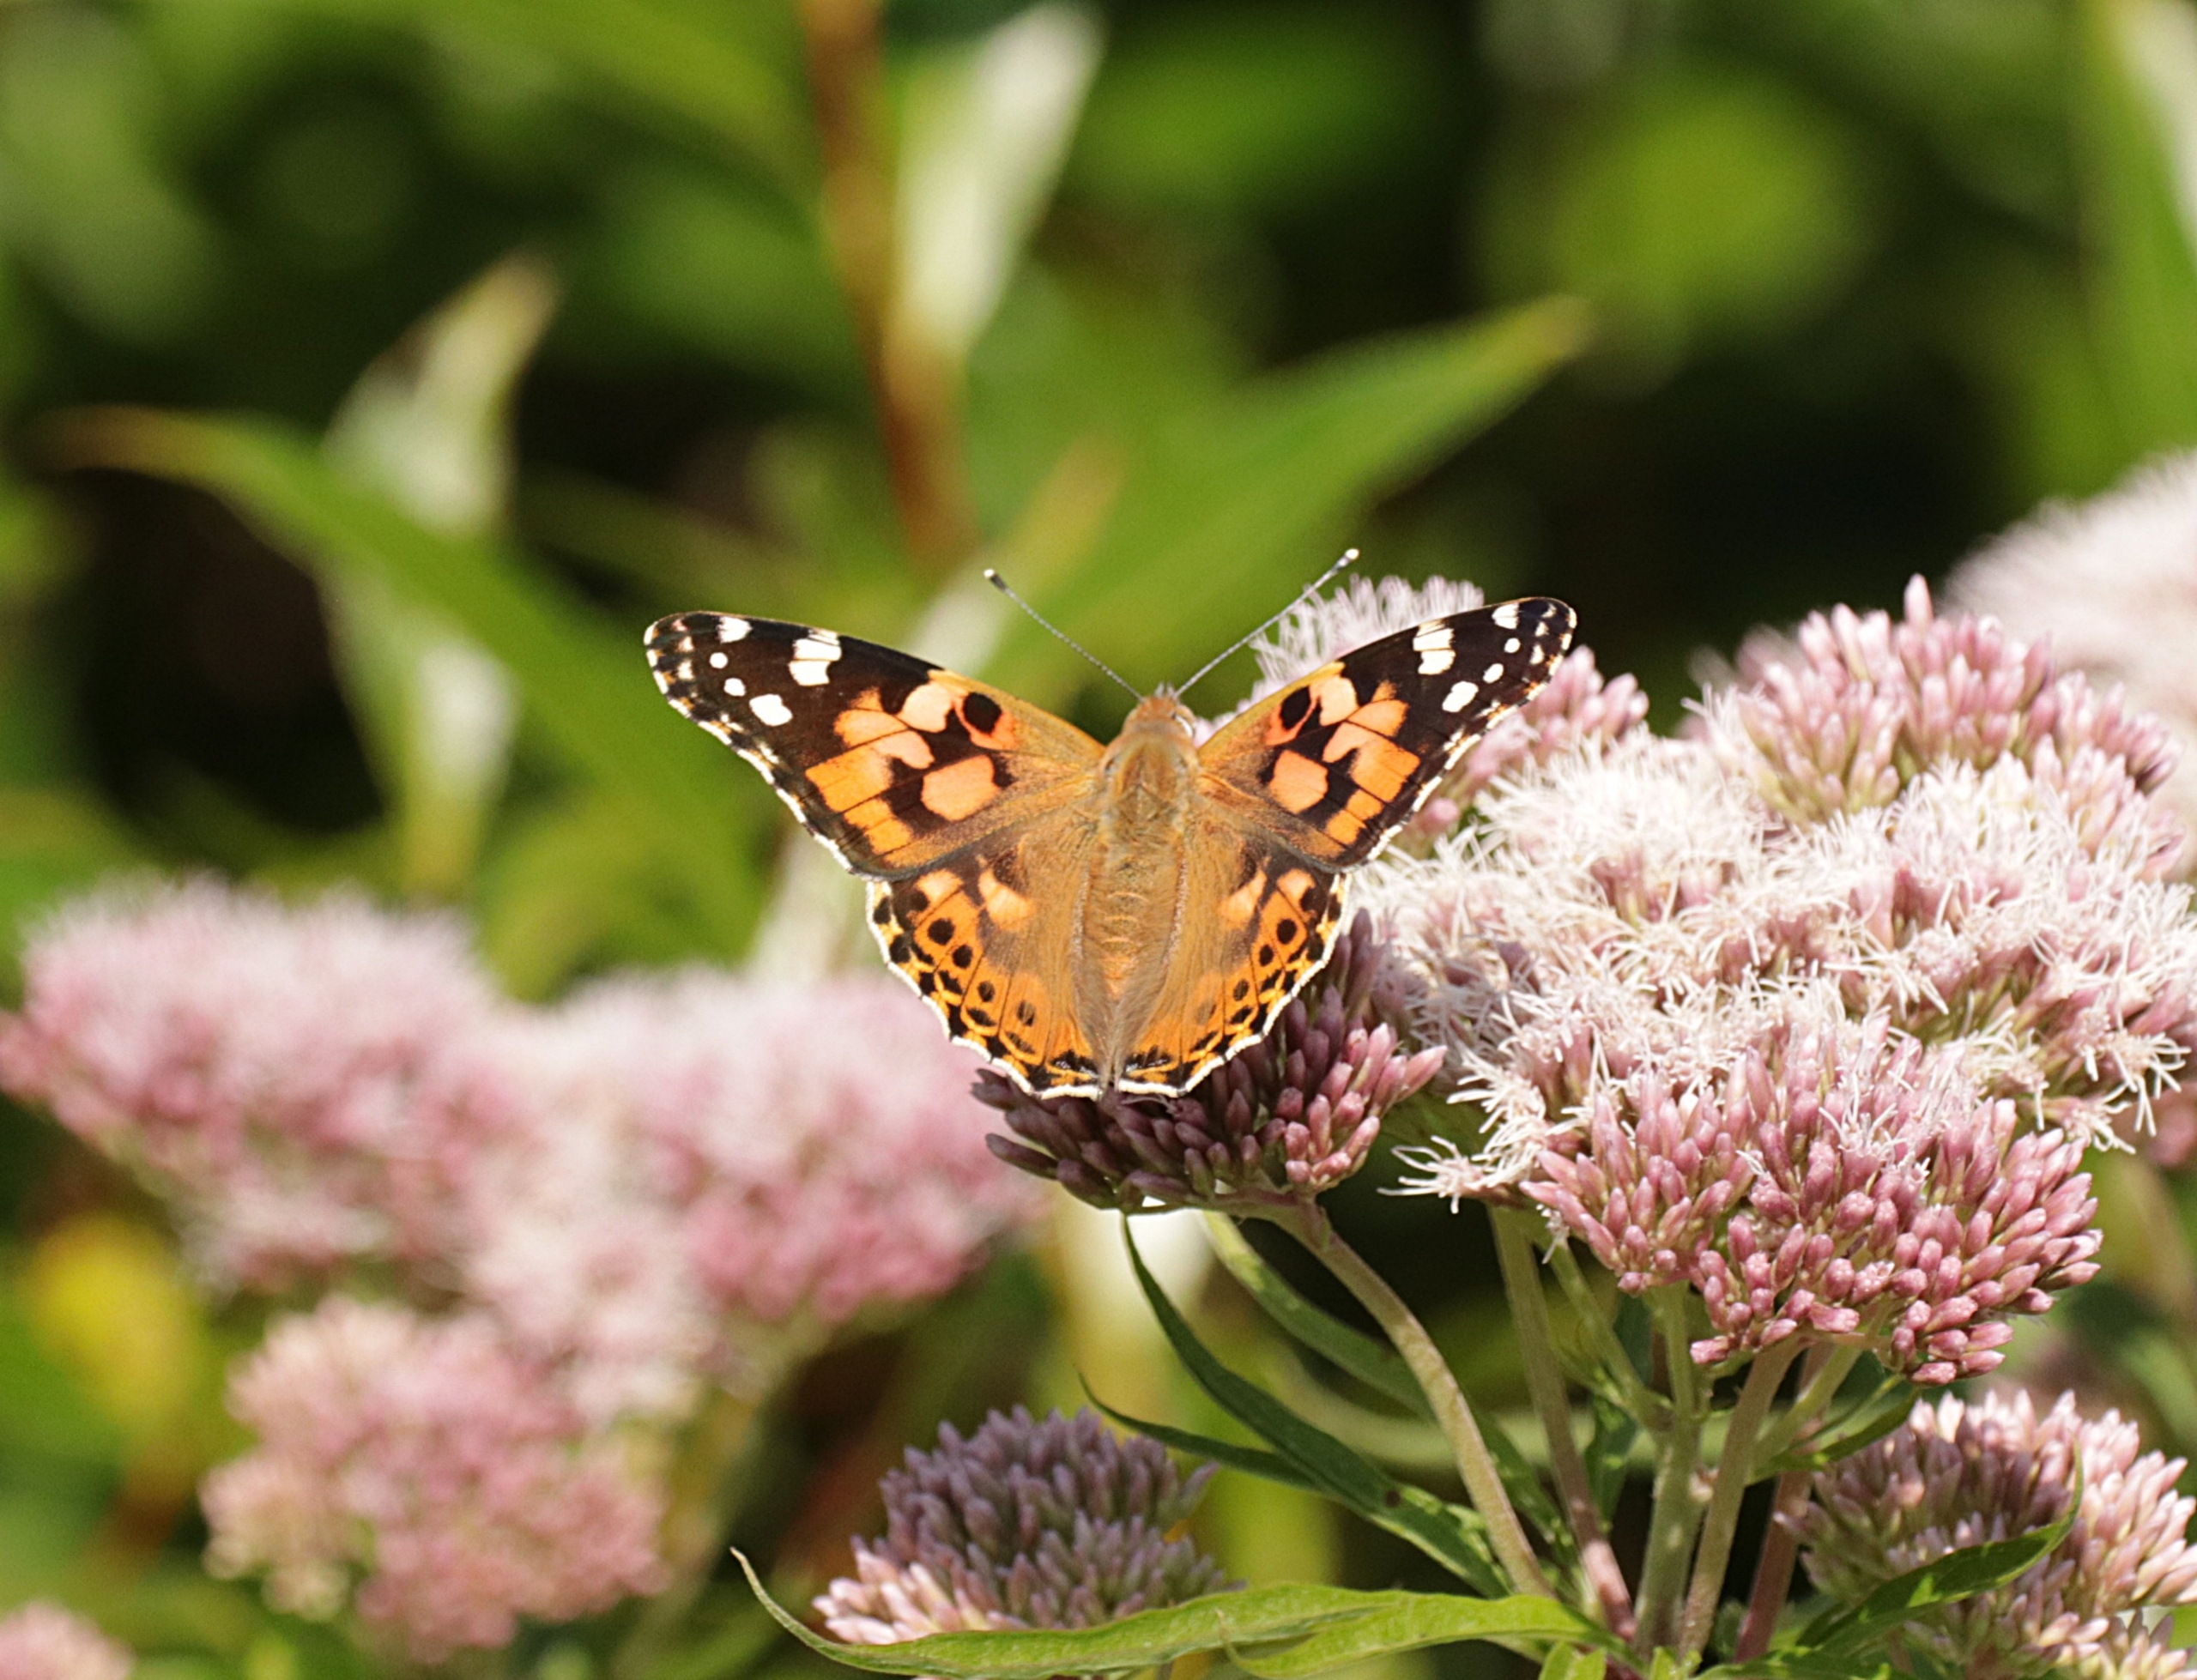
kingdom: Animalia
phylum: Arthropoda
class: Insecta
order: Lepidoptera
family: Nymphalidae
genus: Vanessa
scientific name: Vanessa cardui
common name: Tidselsommerfugl
